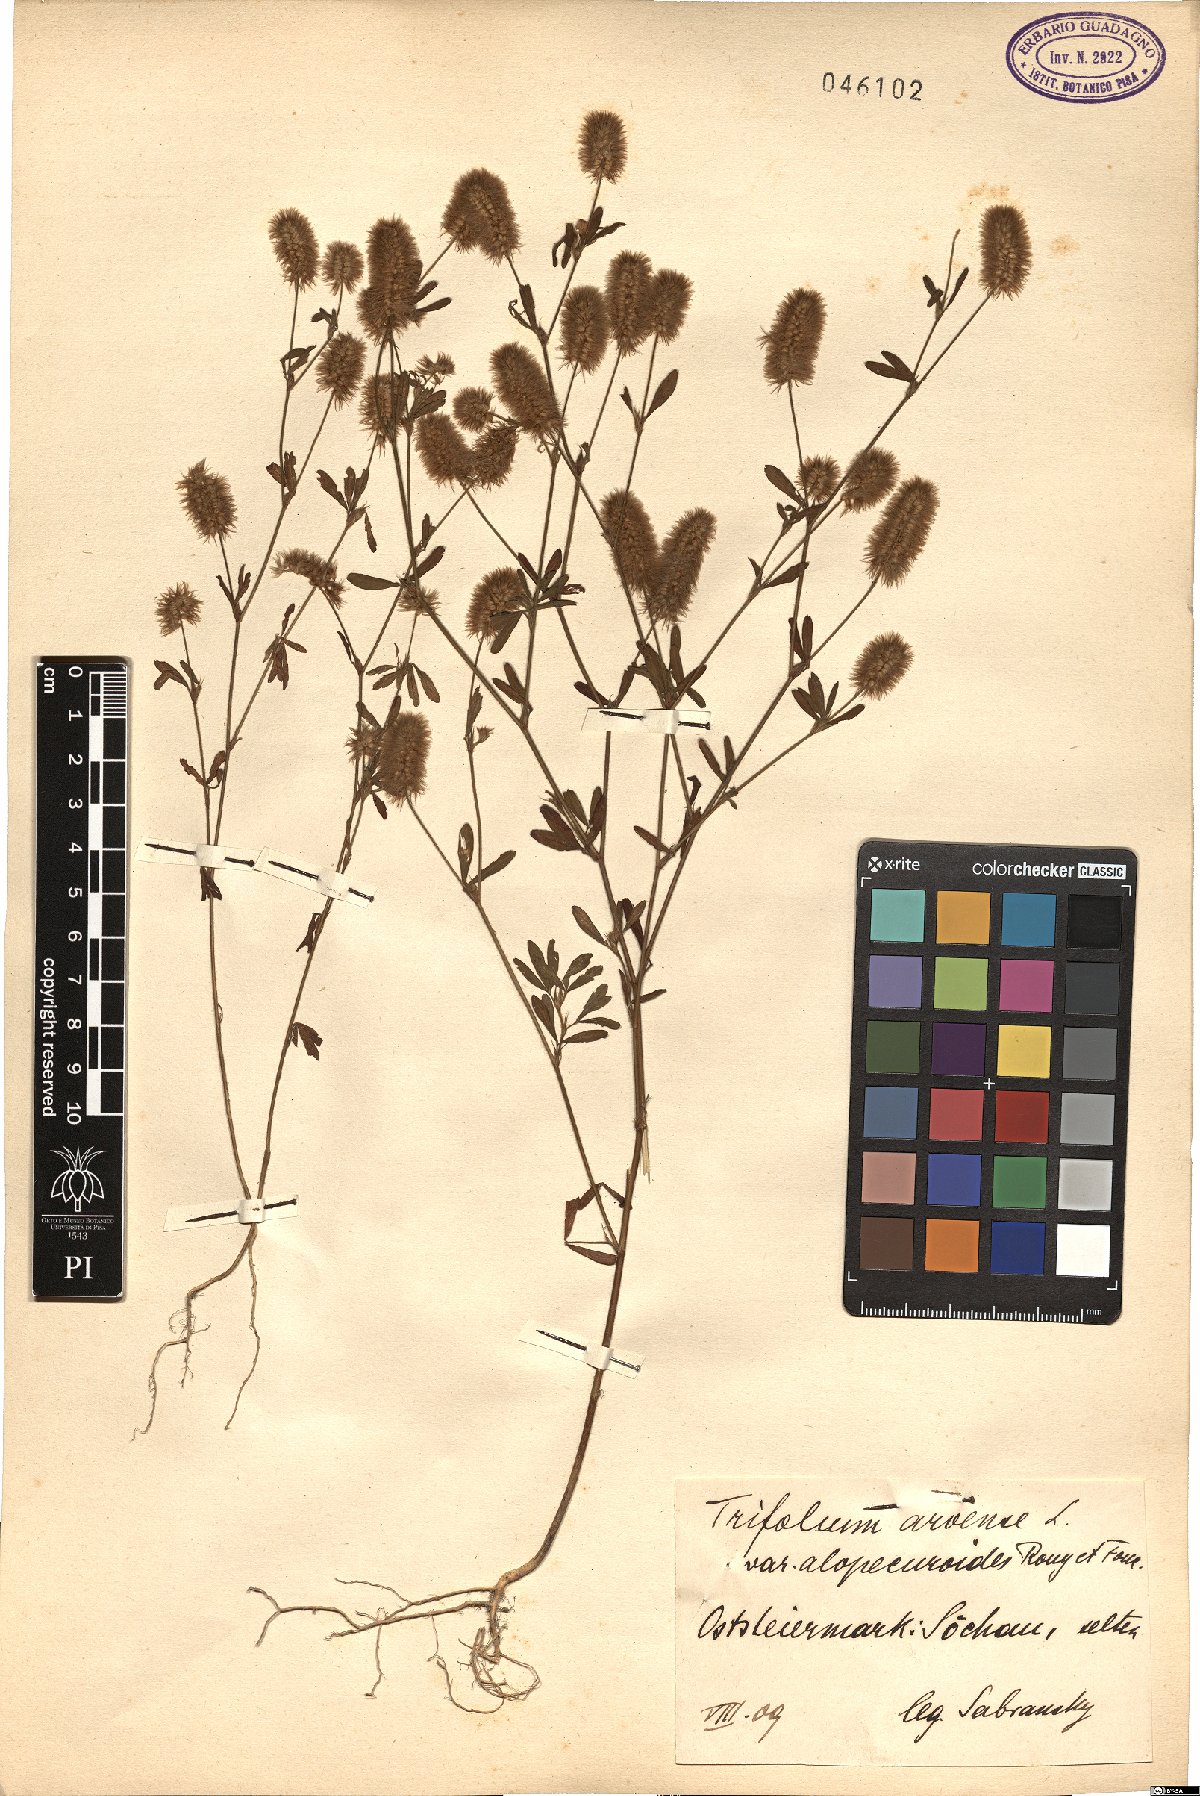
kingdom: Plantae
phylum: Tracheophyta
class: Magnoliopsida
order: Fabales
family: Fabaceae
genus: Trifolium
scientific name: Trifolium arvense
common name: Hare's-foot clover
